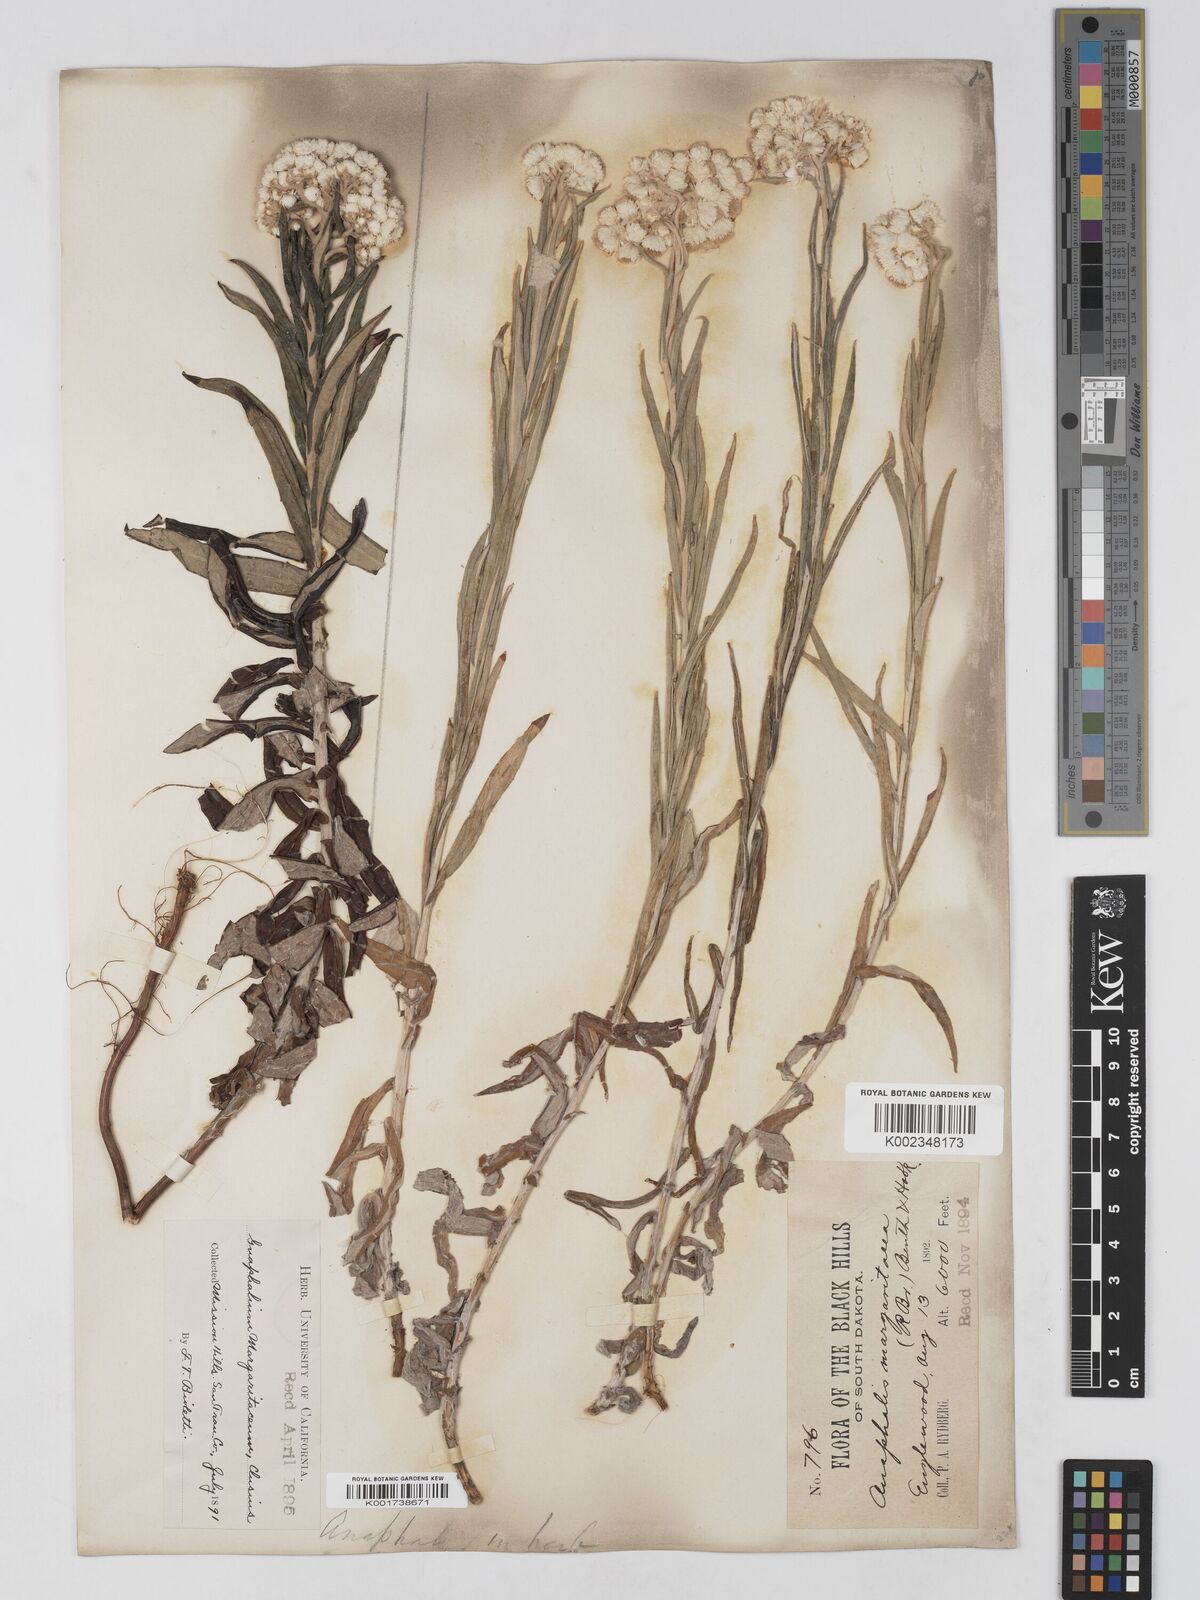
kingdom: Plantae
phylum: Tracheophyta
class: Magnoliopsida
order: Asterales
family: Asteraceae
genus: Anaphalis
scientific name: Anaphalis margaritacea
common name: Pearly everlasting
